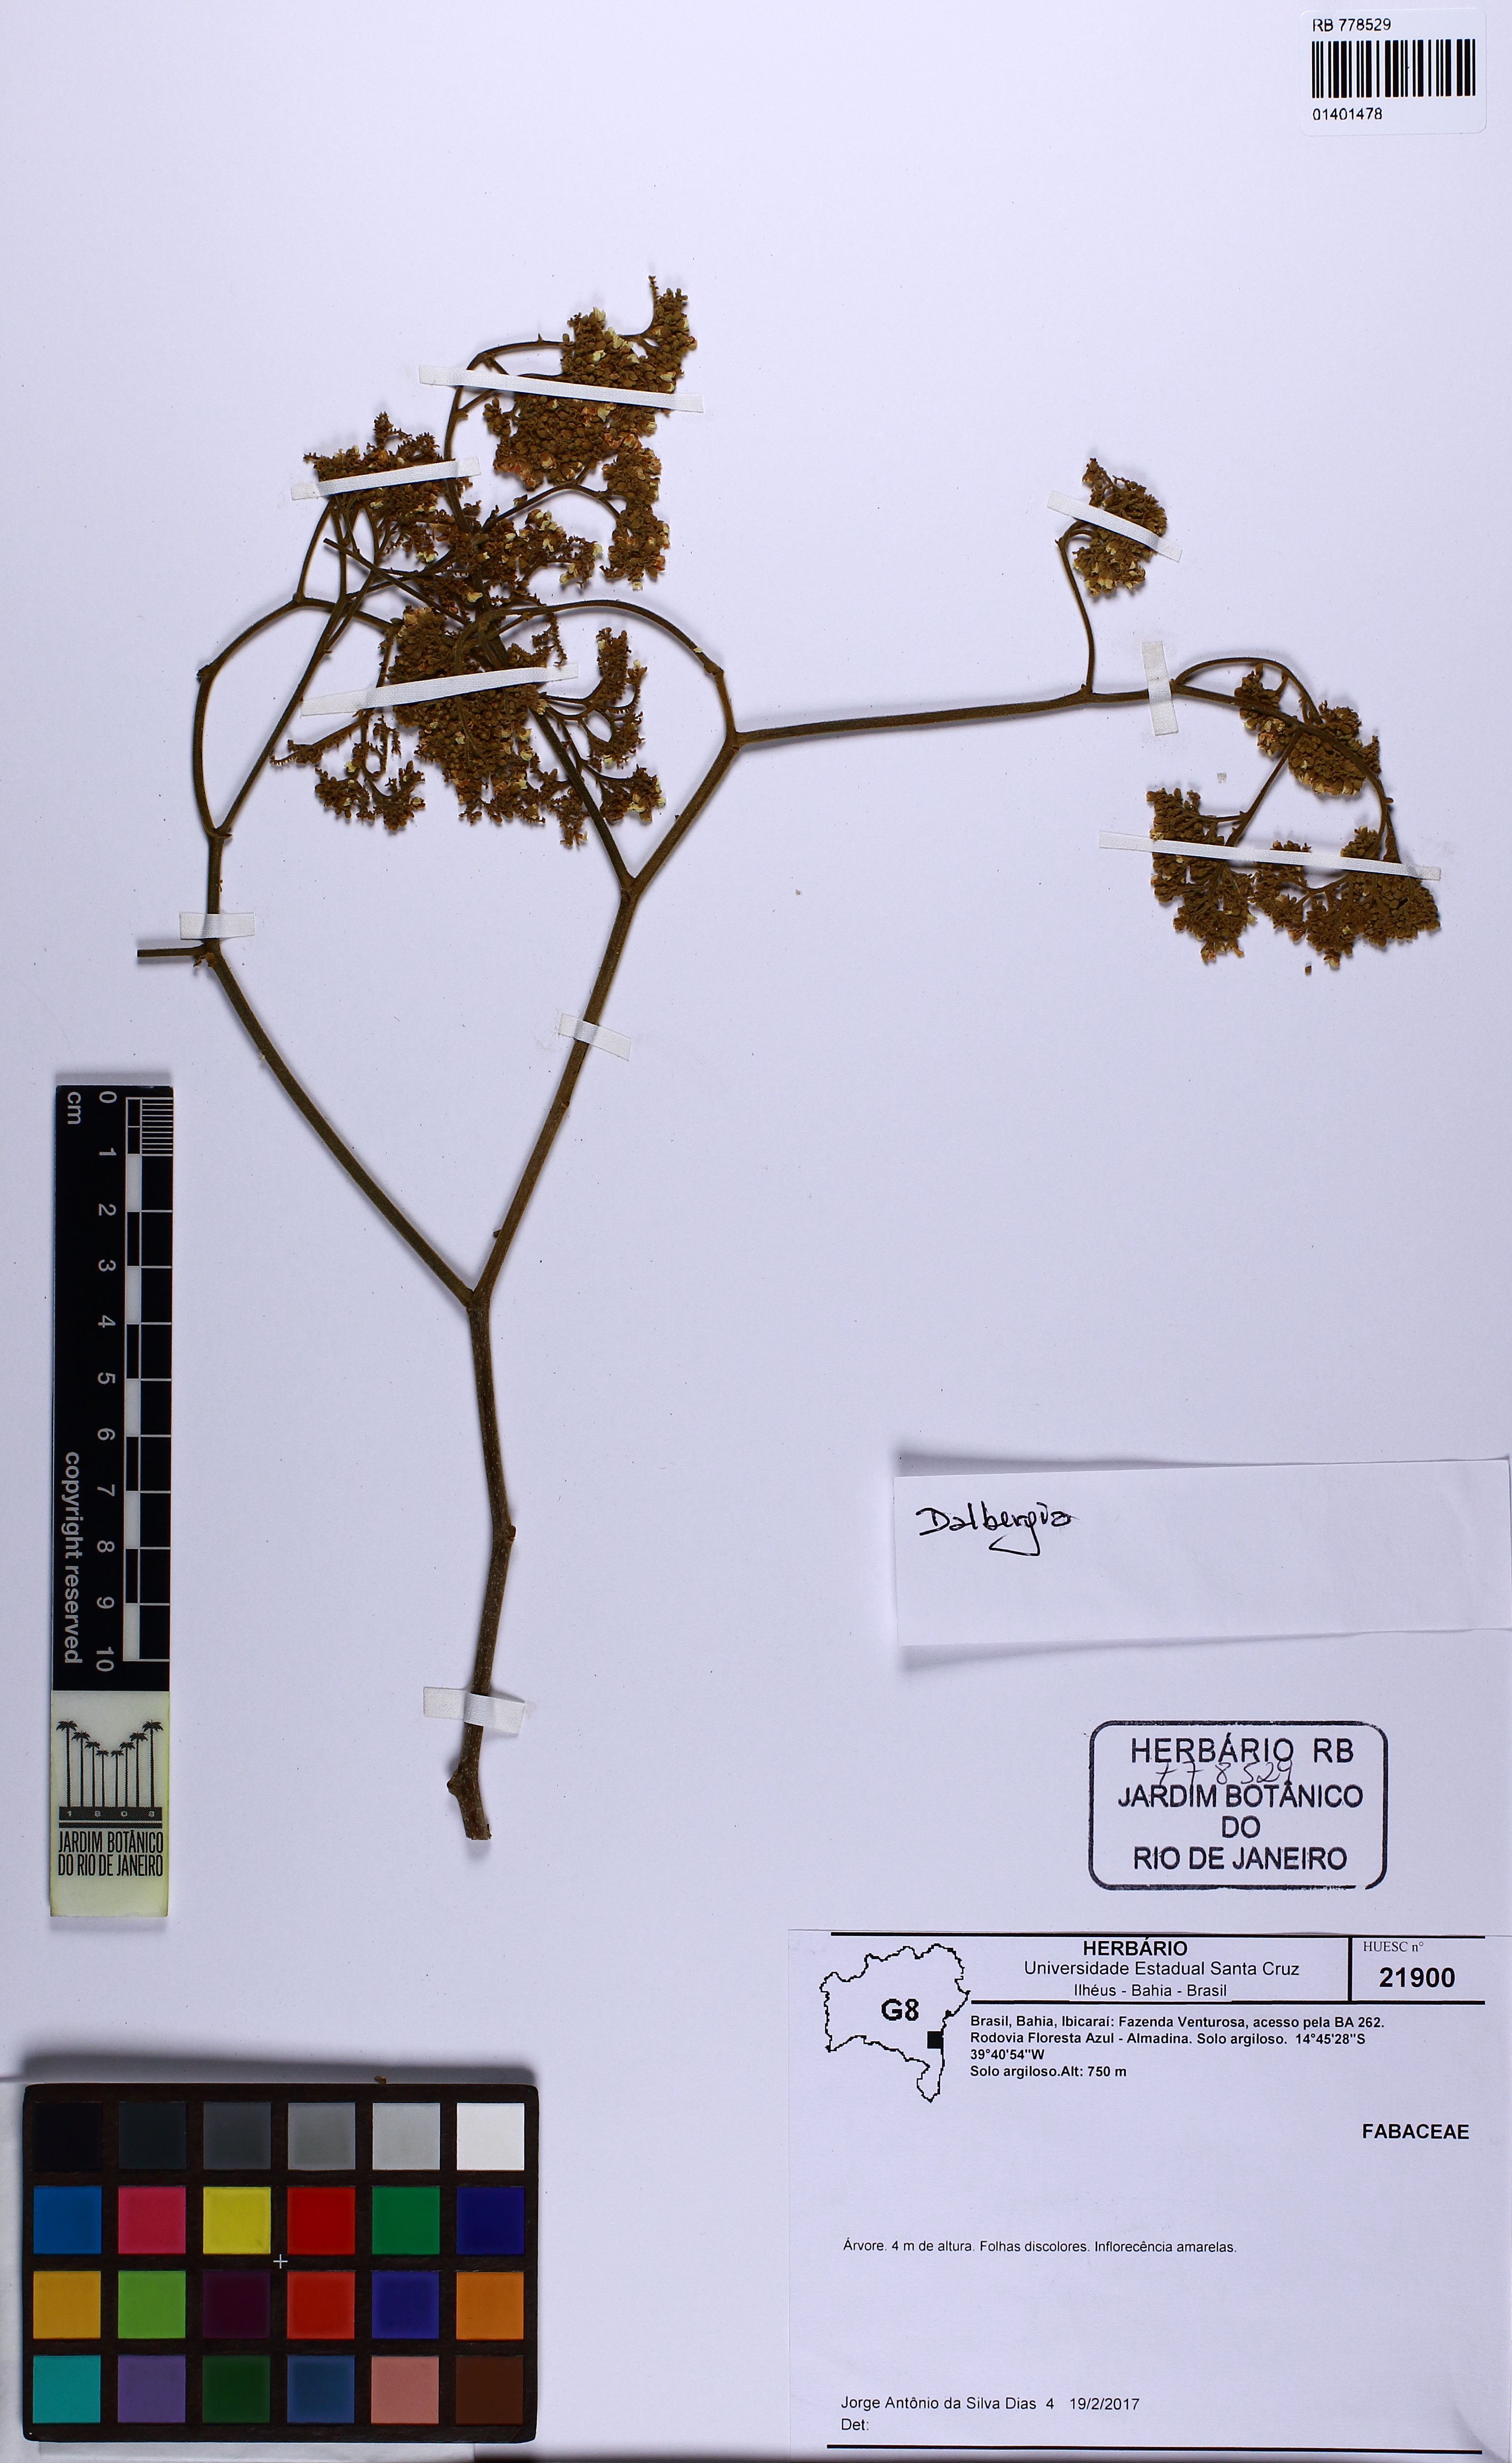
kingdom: Plantae
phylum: Tracheophyta
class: Magnoliopsida
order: Fabales
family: Fabaceae
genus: Dalbergia
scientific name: Dalbergia
